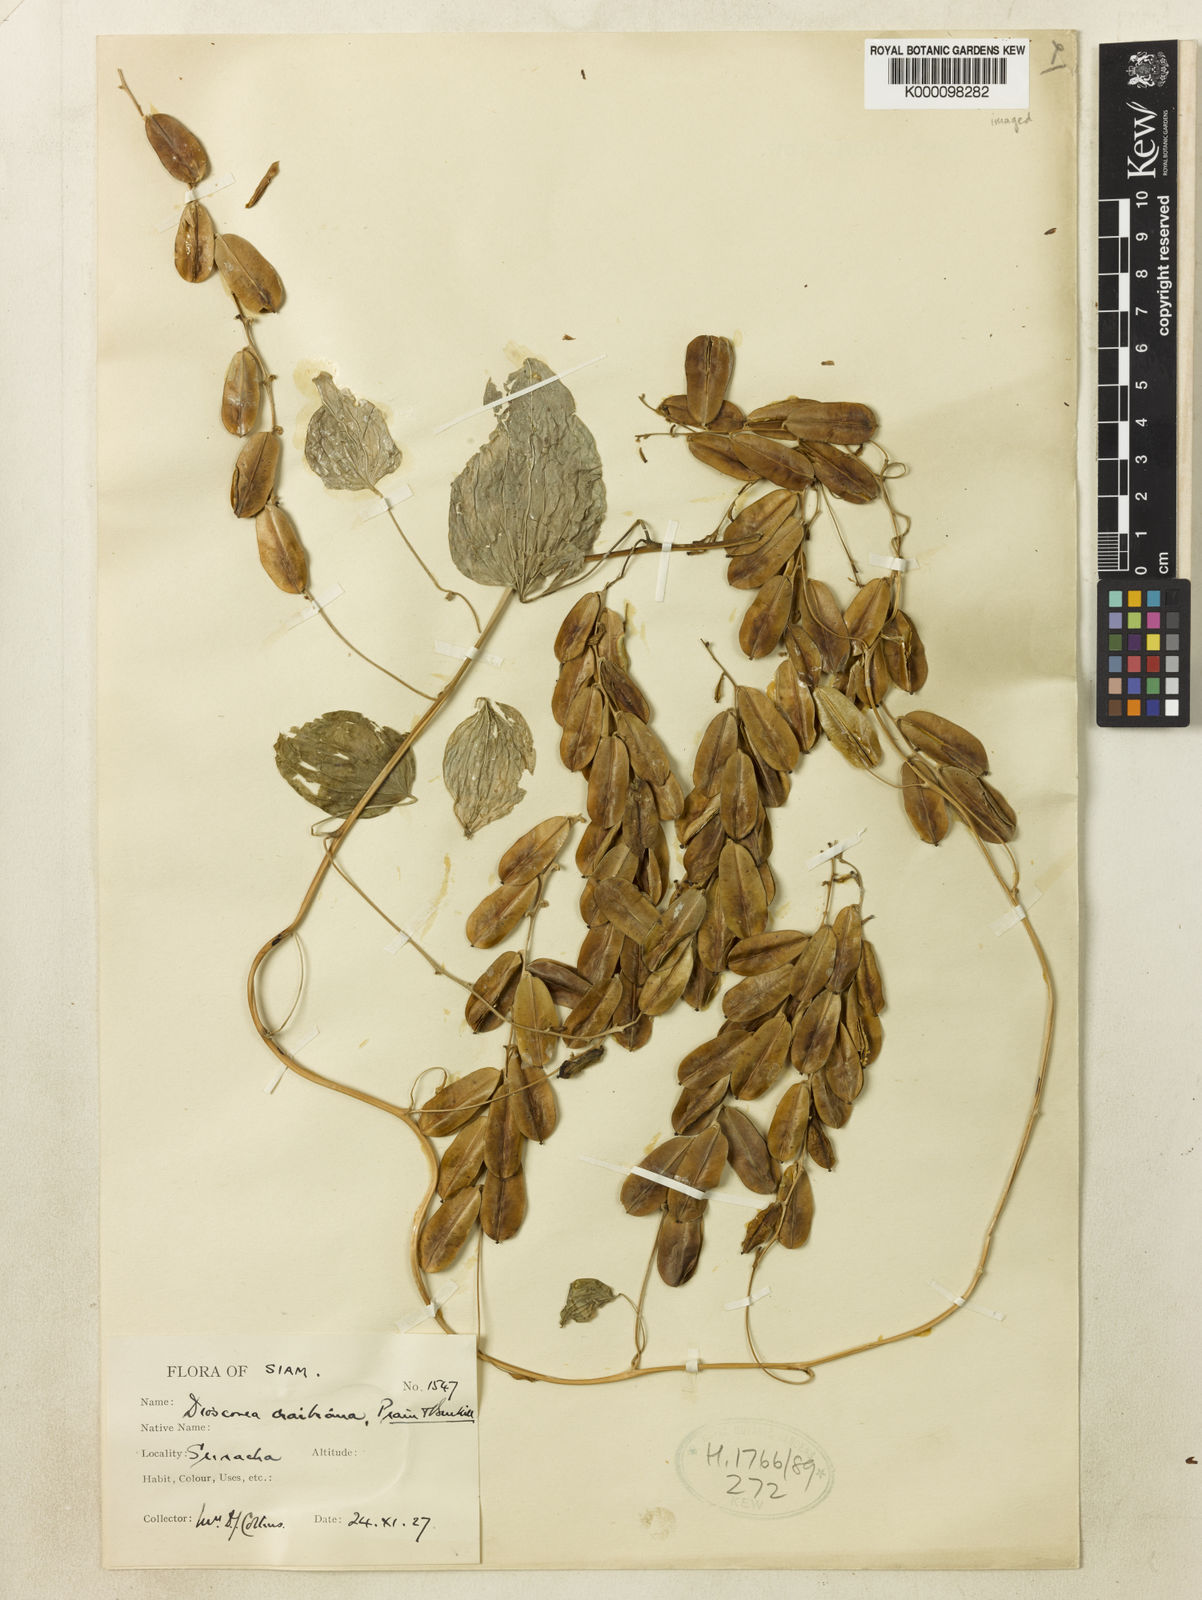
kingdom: Plantae
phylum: Tracheophyta
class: Liliopsida
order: Dioscoreales
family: Dioscoreaceae
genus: Dioscorea
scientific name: Dioscorea craibiana
